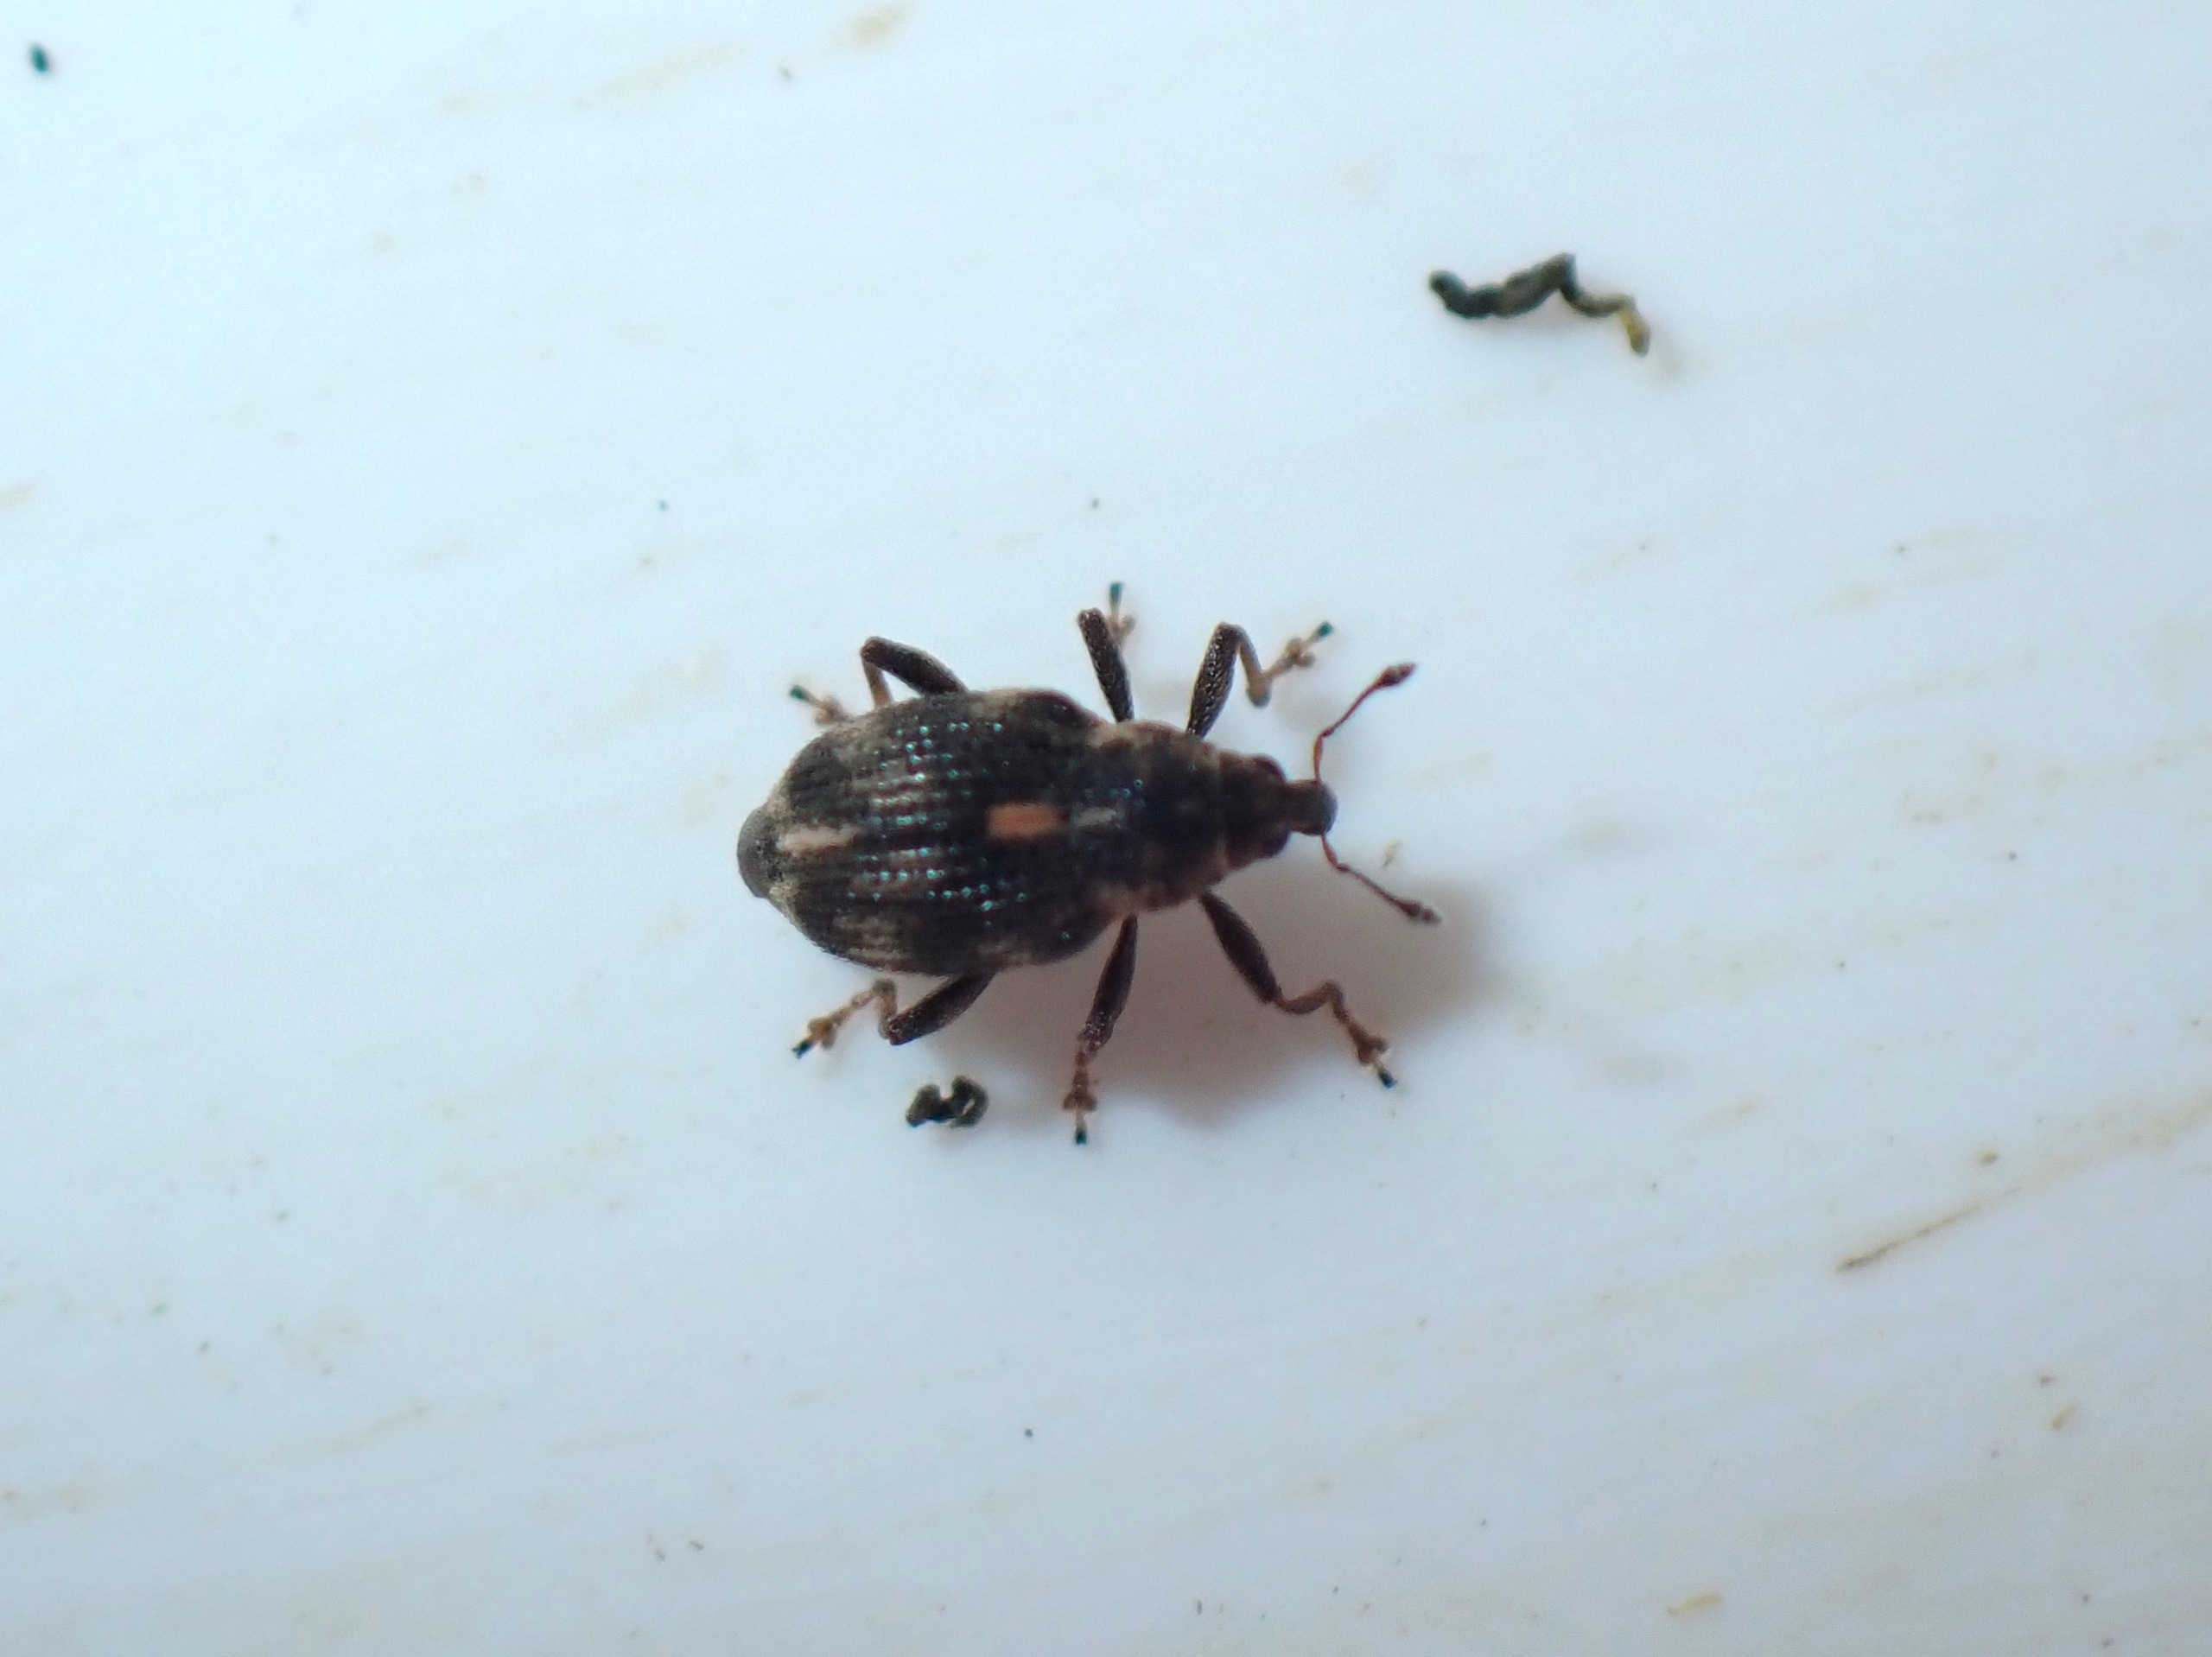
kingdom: Animalia
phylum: Arthropoda
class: Insecta
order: Coleoptera
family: Curculionidae
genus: Rhinoncus
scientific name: Rhinoncus perpendicularis
